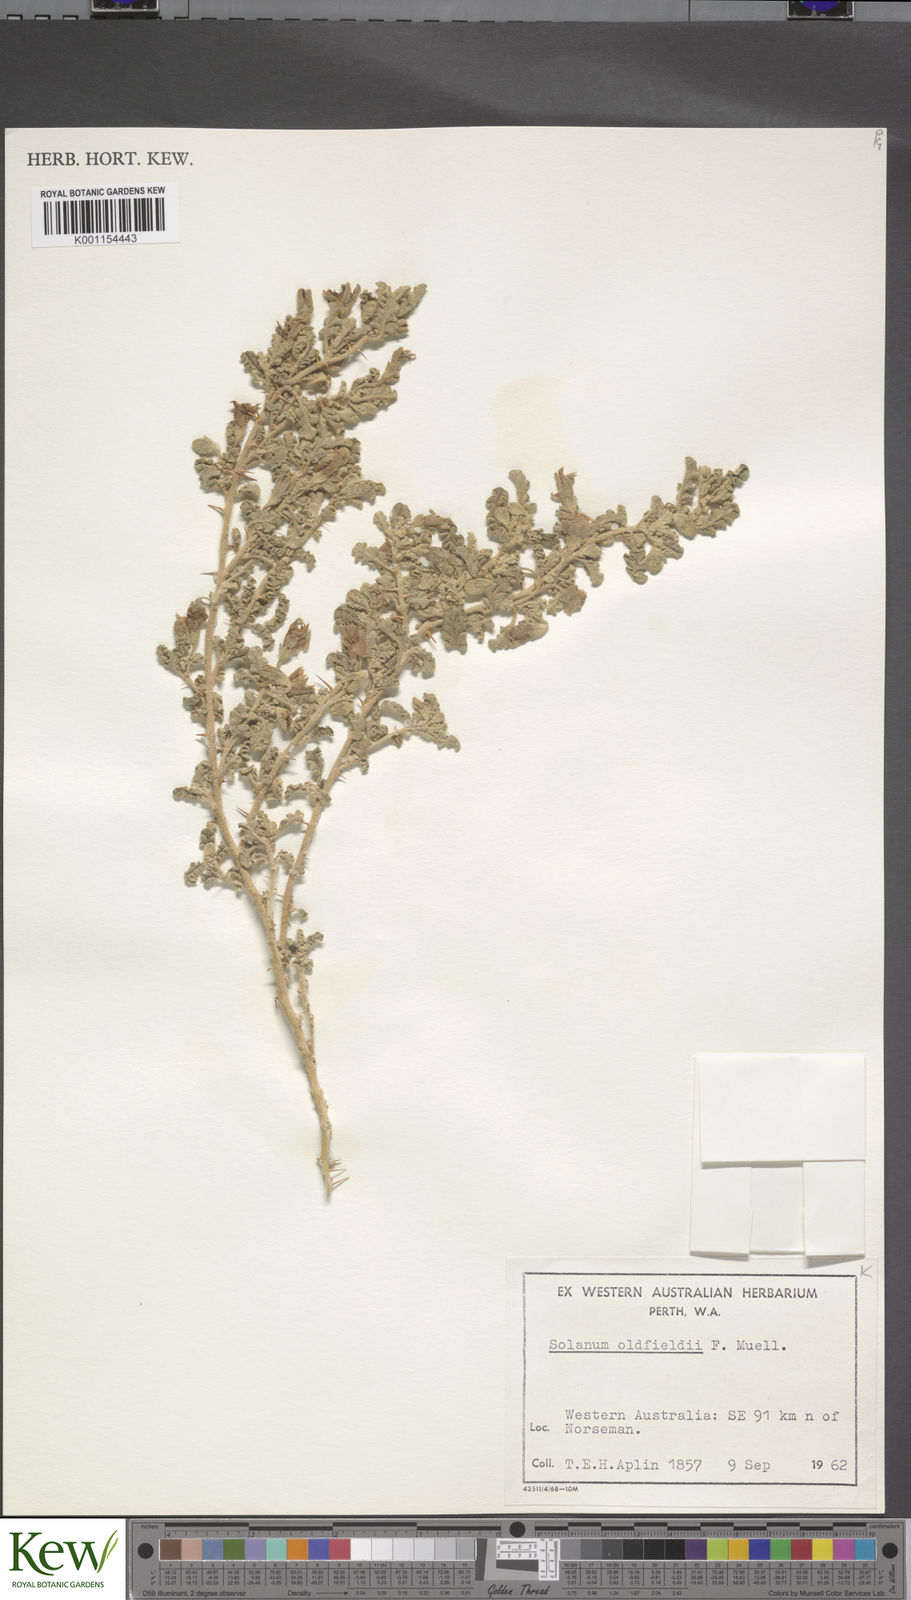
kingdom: Plantae
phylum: Tracheophyta
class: Magnoliopsida
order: Solanales
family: Solanaceae
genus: Solanum
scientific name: Solanum plicatile
